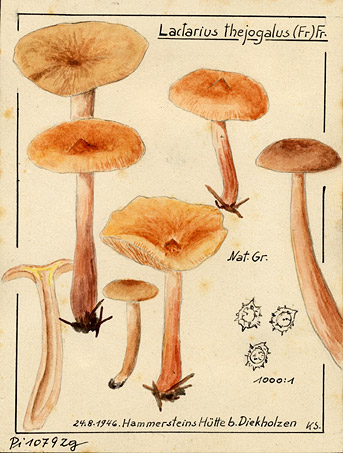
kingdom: Fungi
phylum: Basidiomycota
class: Agaricomycetes
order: Russulales
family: Russulaceae
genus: Lactarius
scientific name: Lactarius tabidus
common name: Birch milkcap
